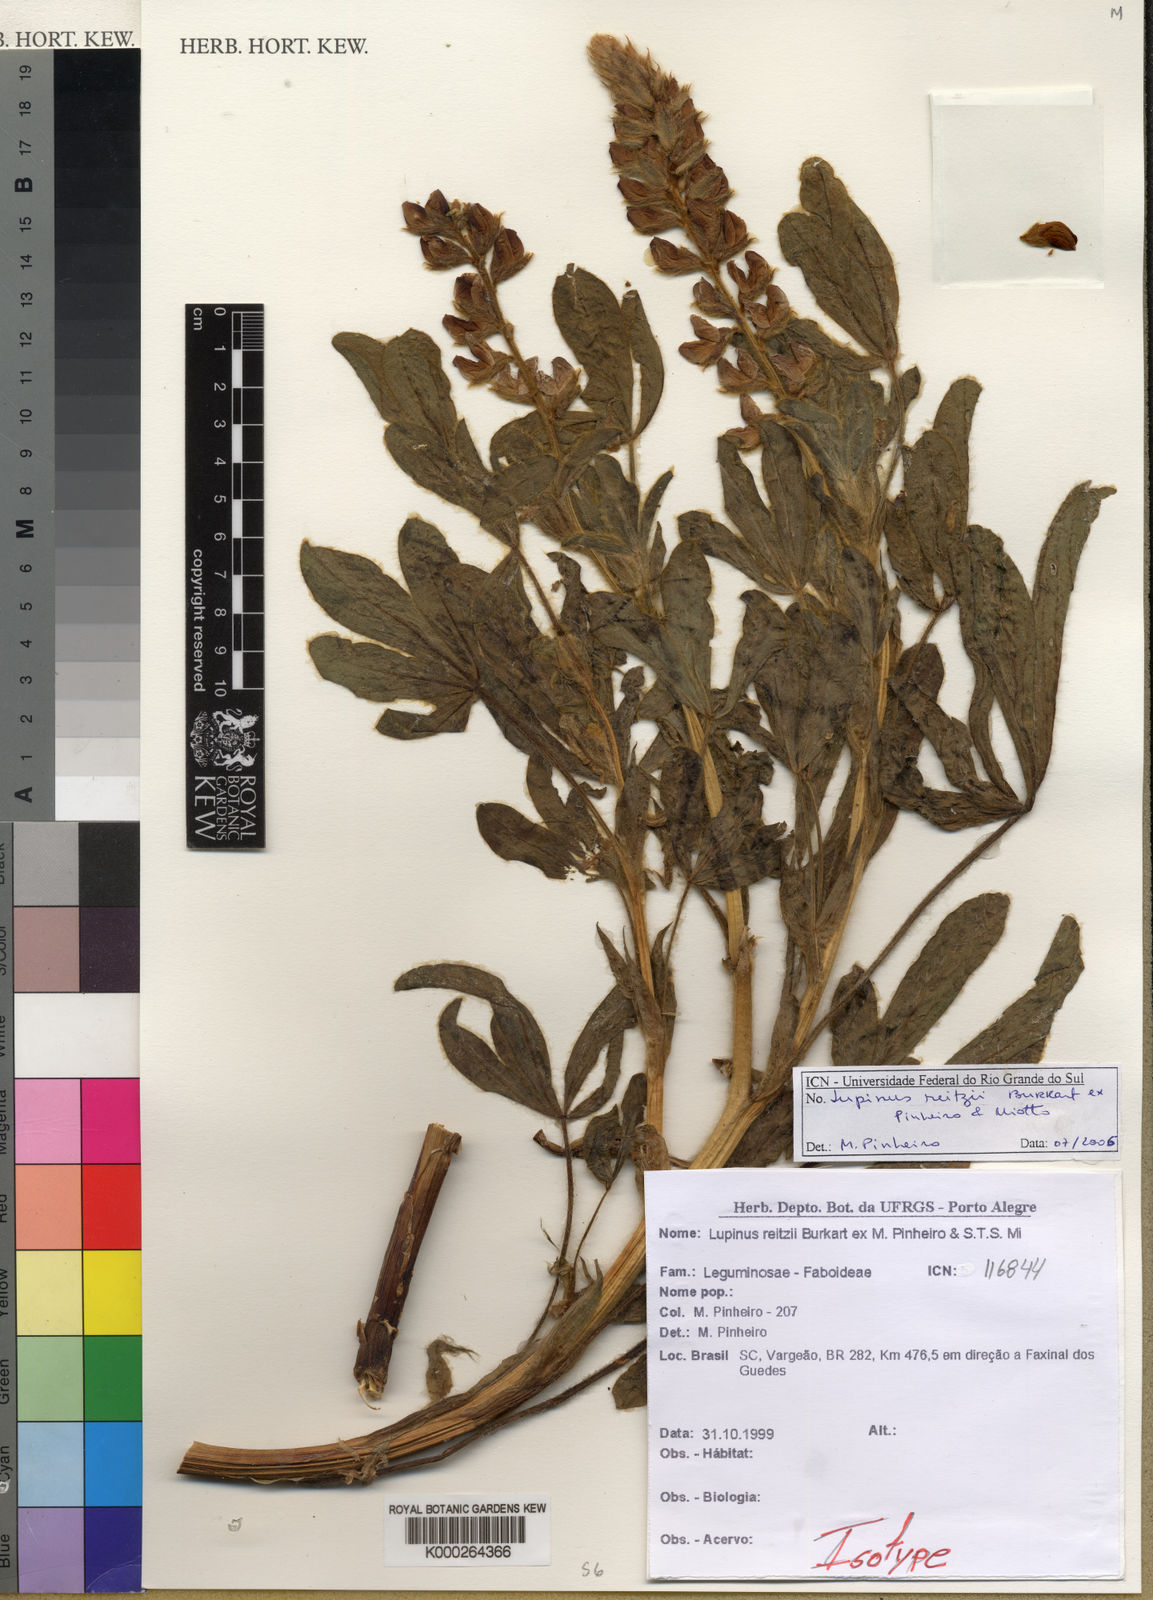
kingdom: Plantae
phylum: Tracheophyta
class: Magnoliopsida
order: Fabales
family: Fabaceae
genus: Lupinus
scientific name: Lupinus reitzii
